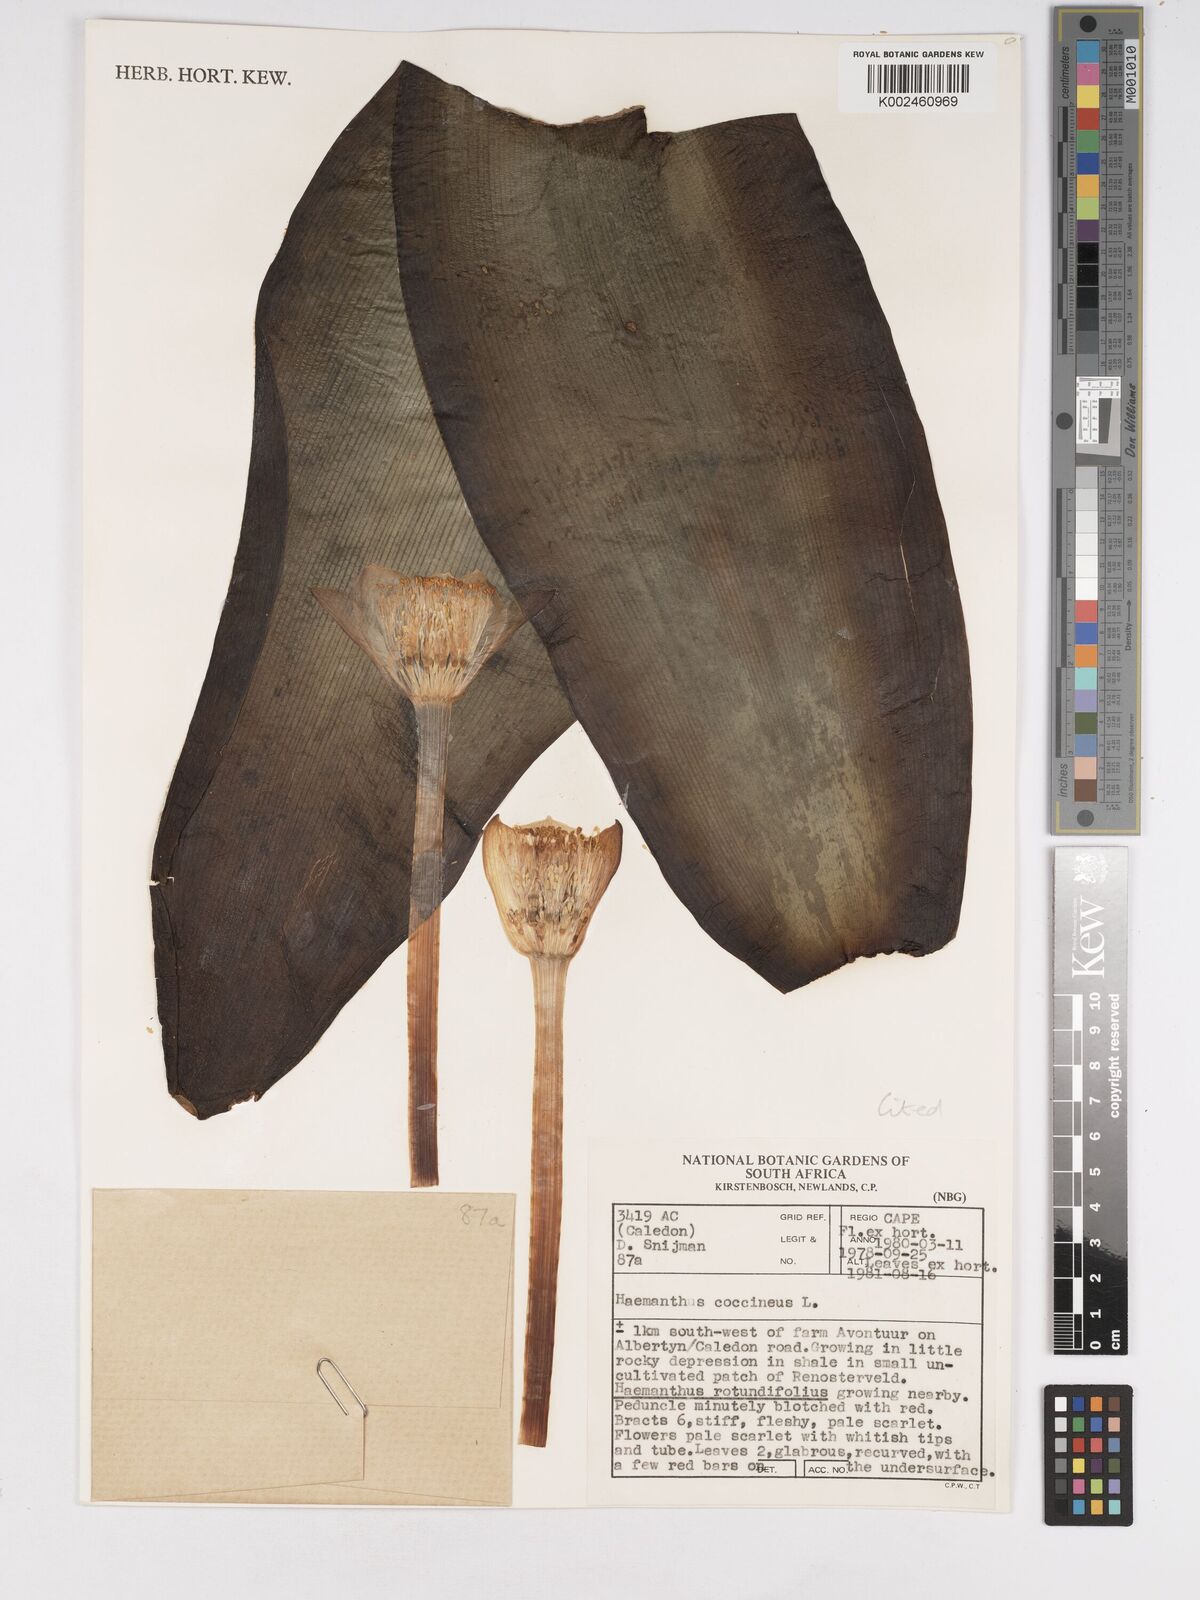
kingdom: Plantae
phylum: Tracheophyta
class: Liliopsida
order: Asparagales
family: Amaryllidaceae
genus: Haemanthus
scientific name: Haemanthus coccineus
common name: Cape-tulip
